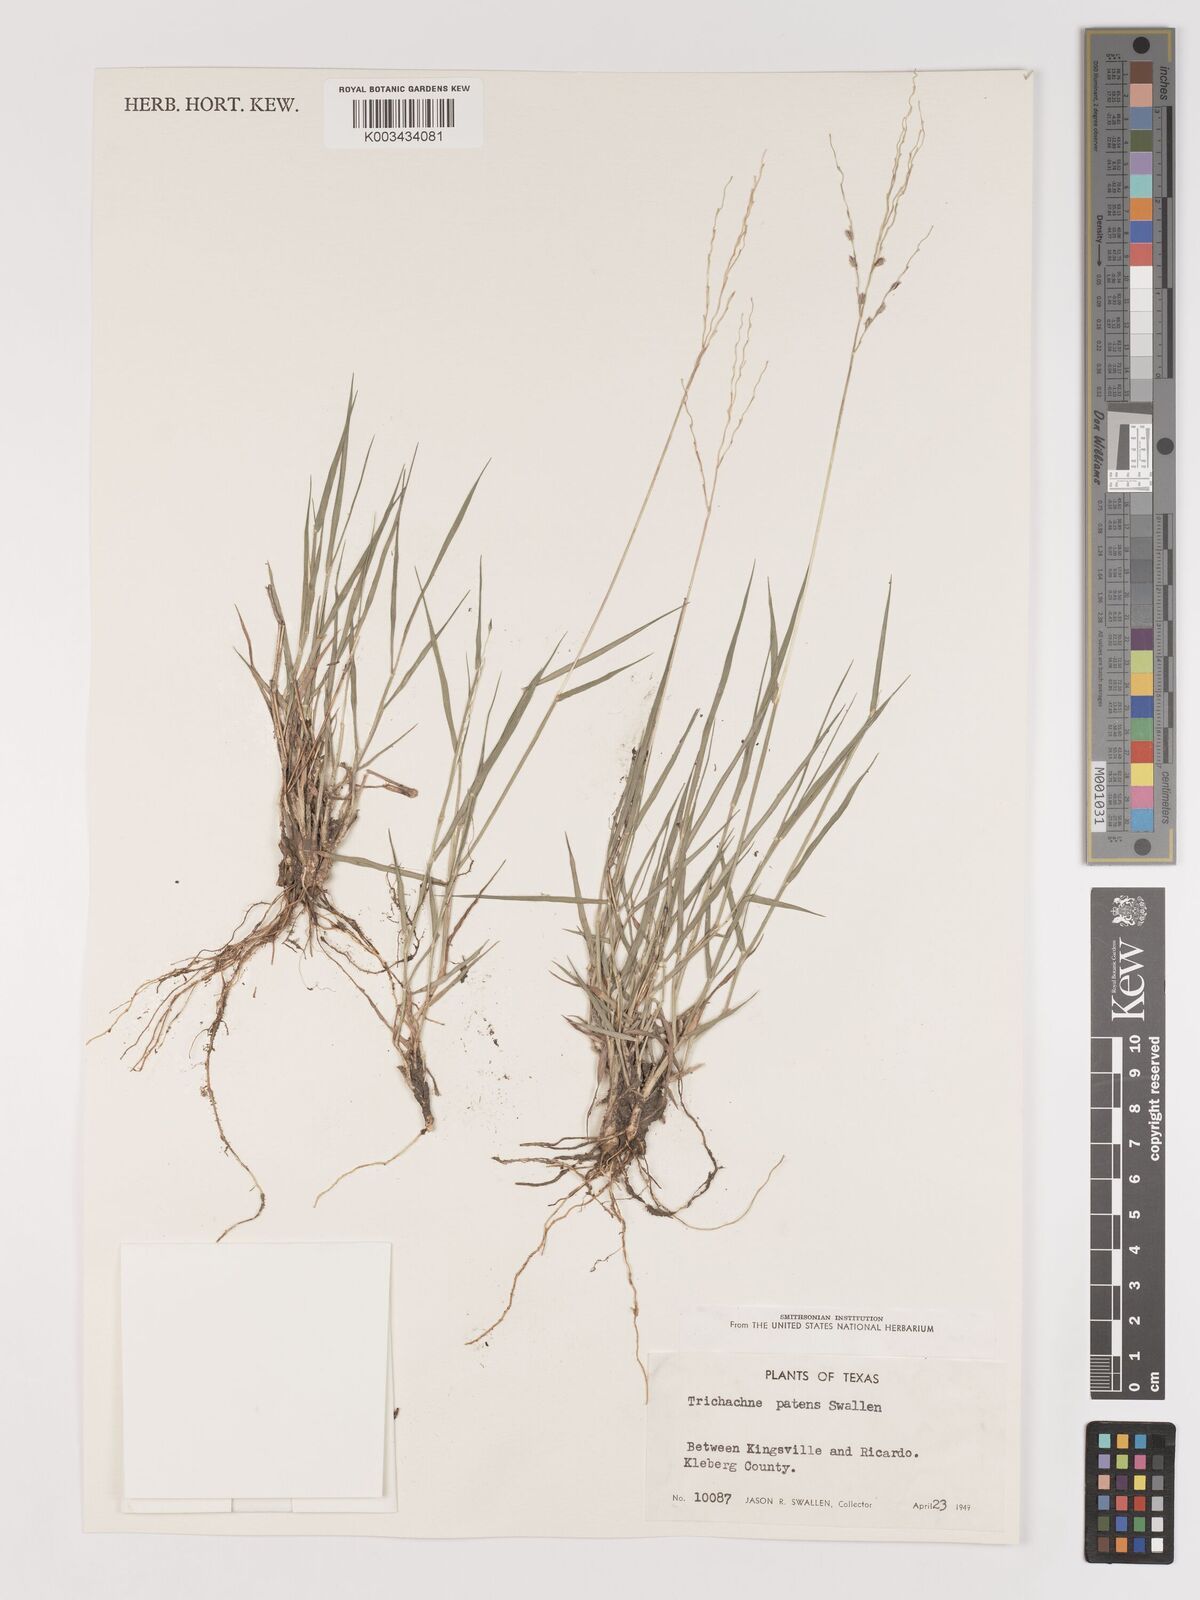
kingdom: Plantae
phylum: Tracheophyta
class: Liliopsida
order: Poales
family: Poaceae
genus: Digitaria
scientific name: Digitaria patens
